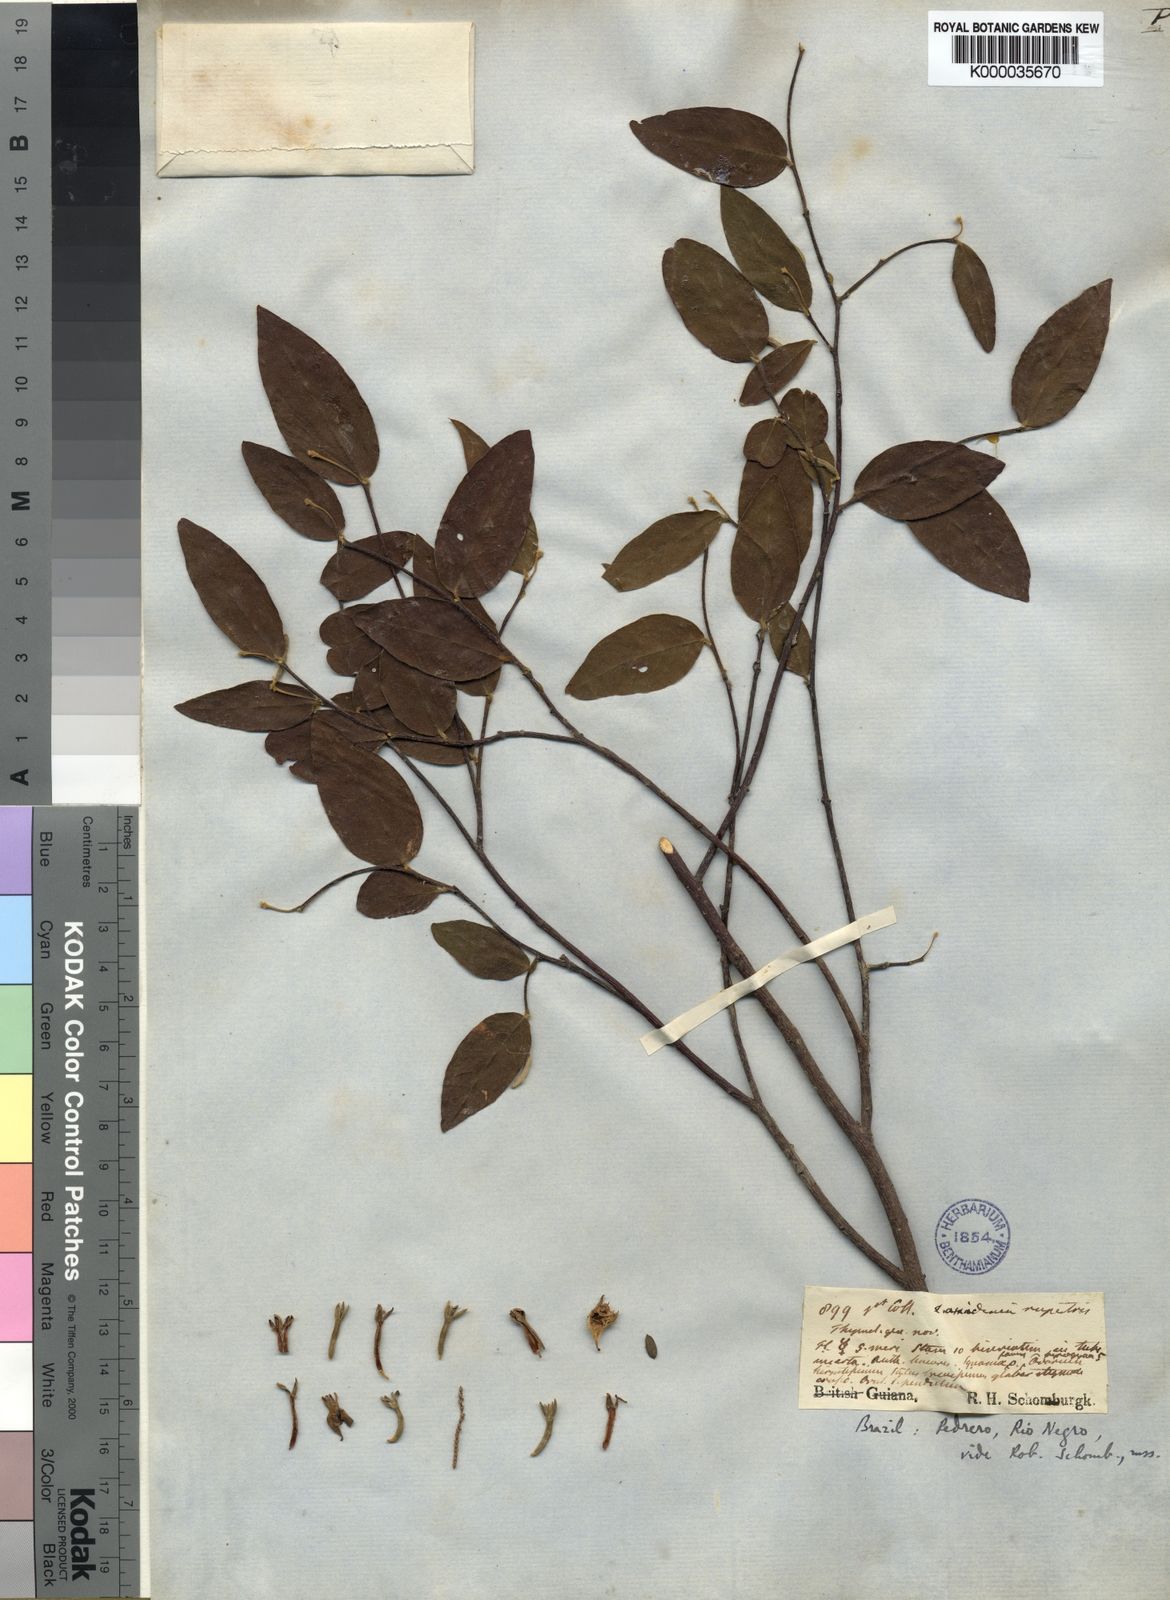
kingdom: Plantae
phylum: Tracheophyta
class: Magnoliopsida
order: Malvales
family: Thymelaeaceae
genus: Lasiadenia
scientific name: Lasiadenia rupestris
